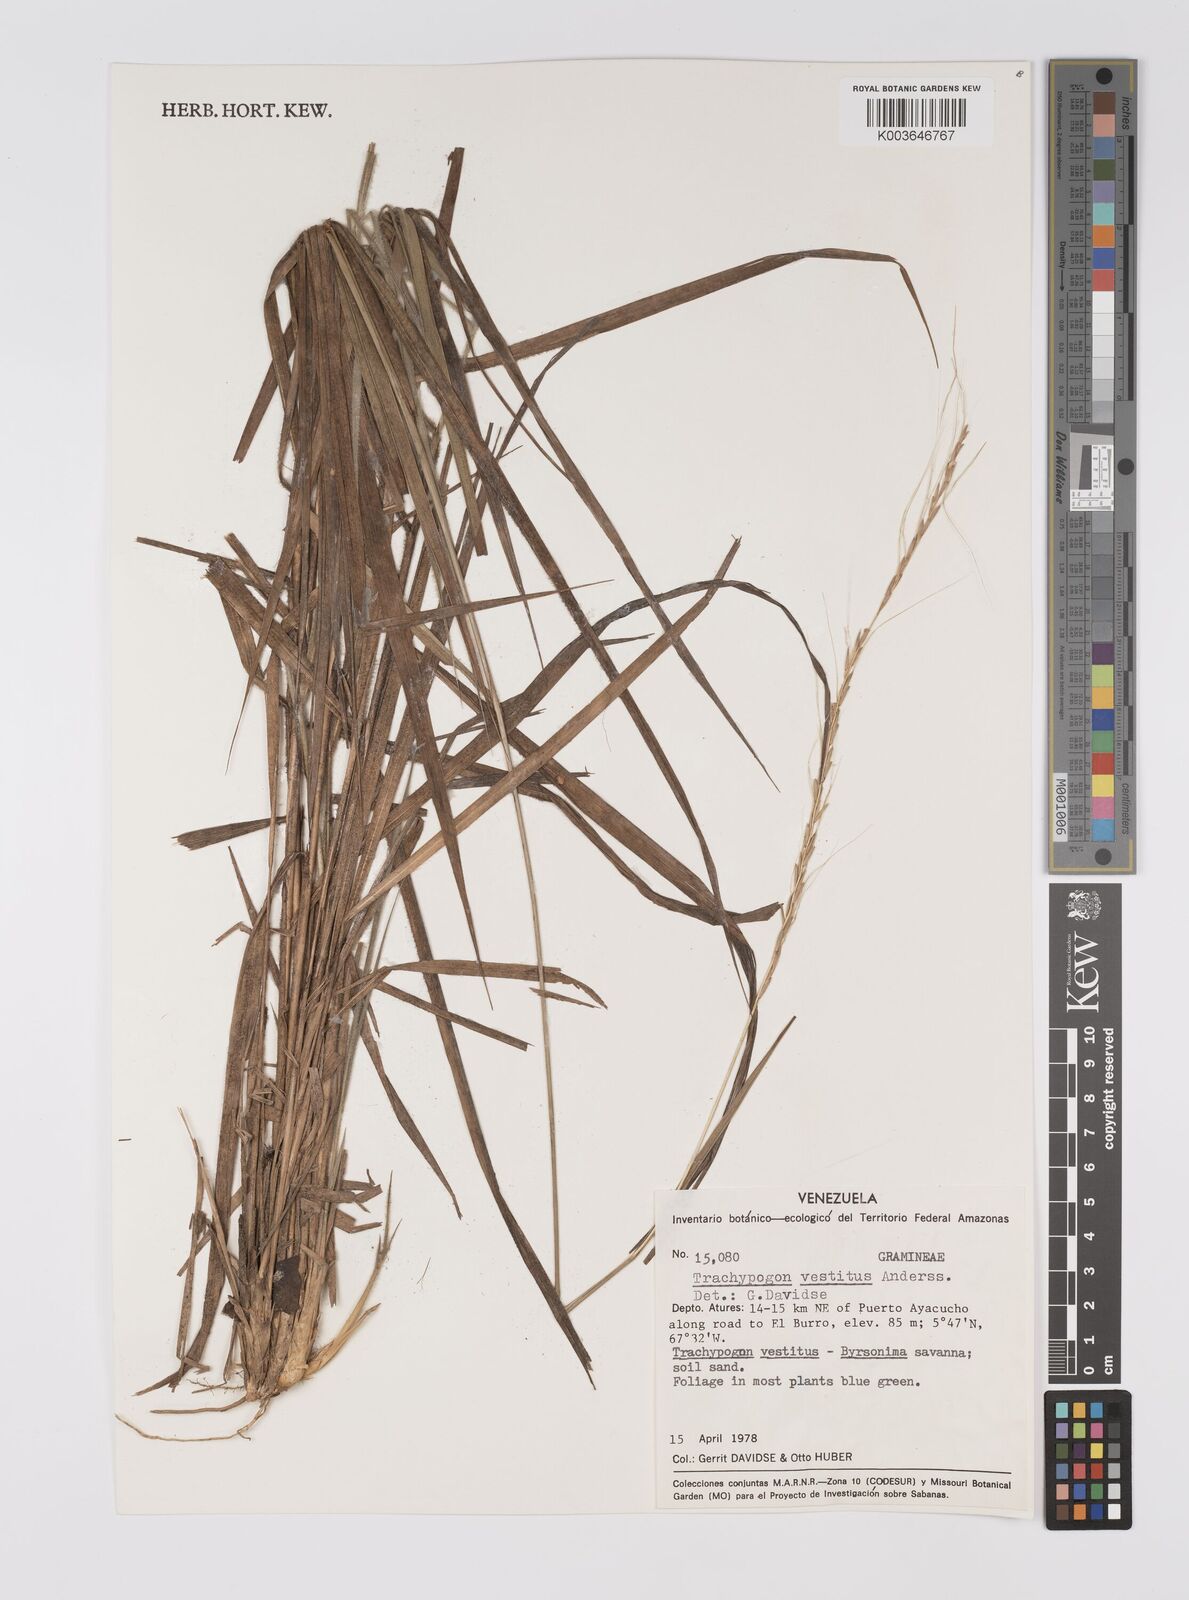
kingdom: Plantae
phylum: Tracheophyta
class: Liliopsida
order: Poales
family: Poaceae
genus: Trachypogon
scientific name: Trachypogon spicatus
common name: Crinkle-awn
